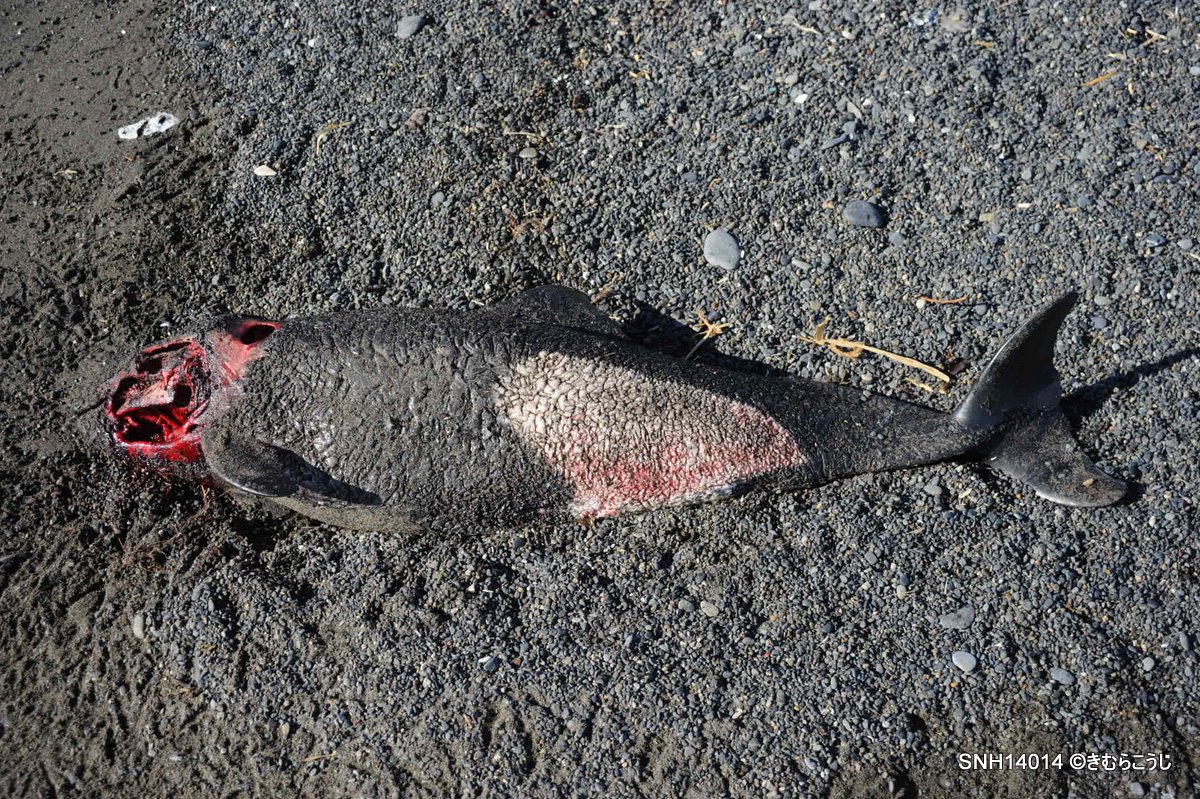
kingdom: Animalia
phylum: Chordata
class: Mammalia
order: Cetacea
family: Phocoenidae
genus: Phocoenoides
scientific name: Phocoenoides dalli
